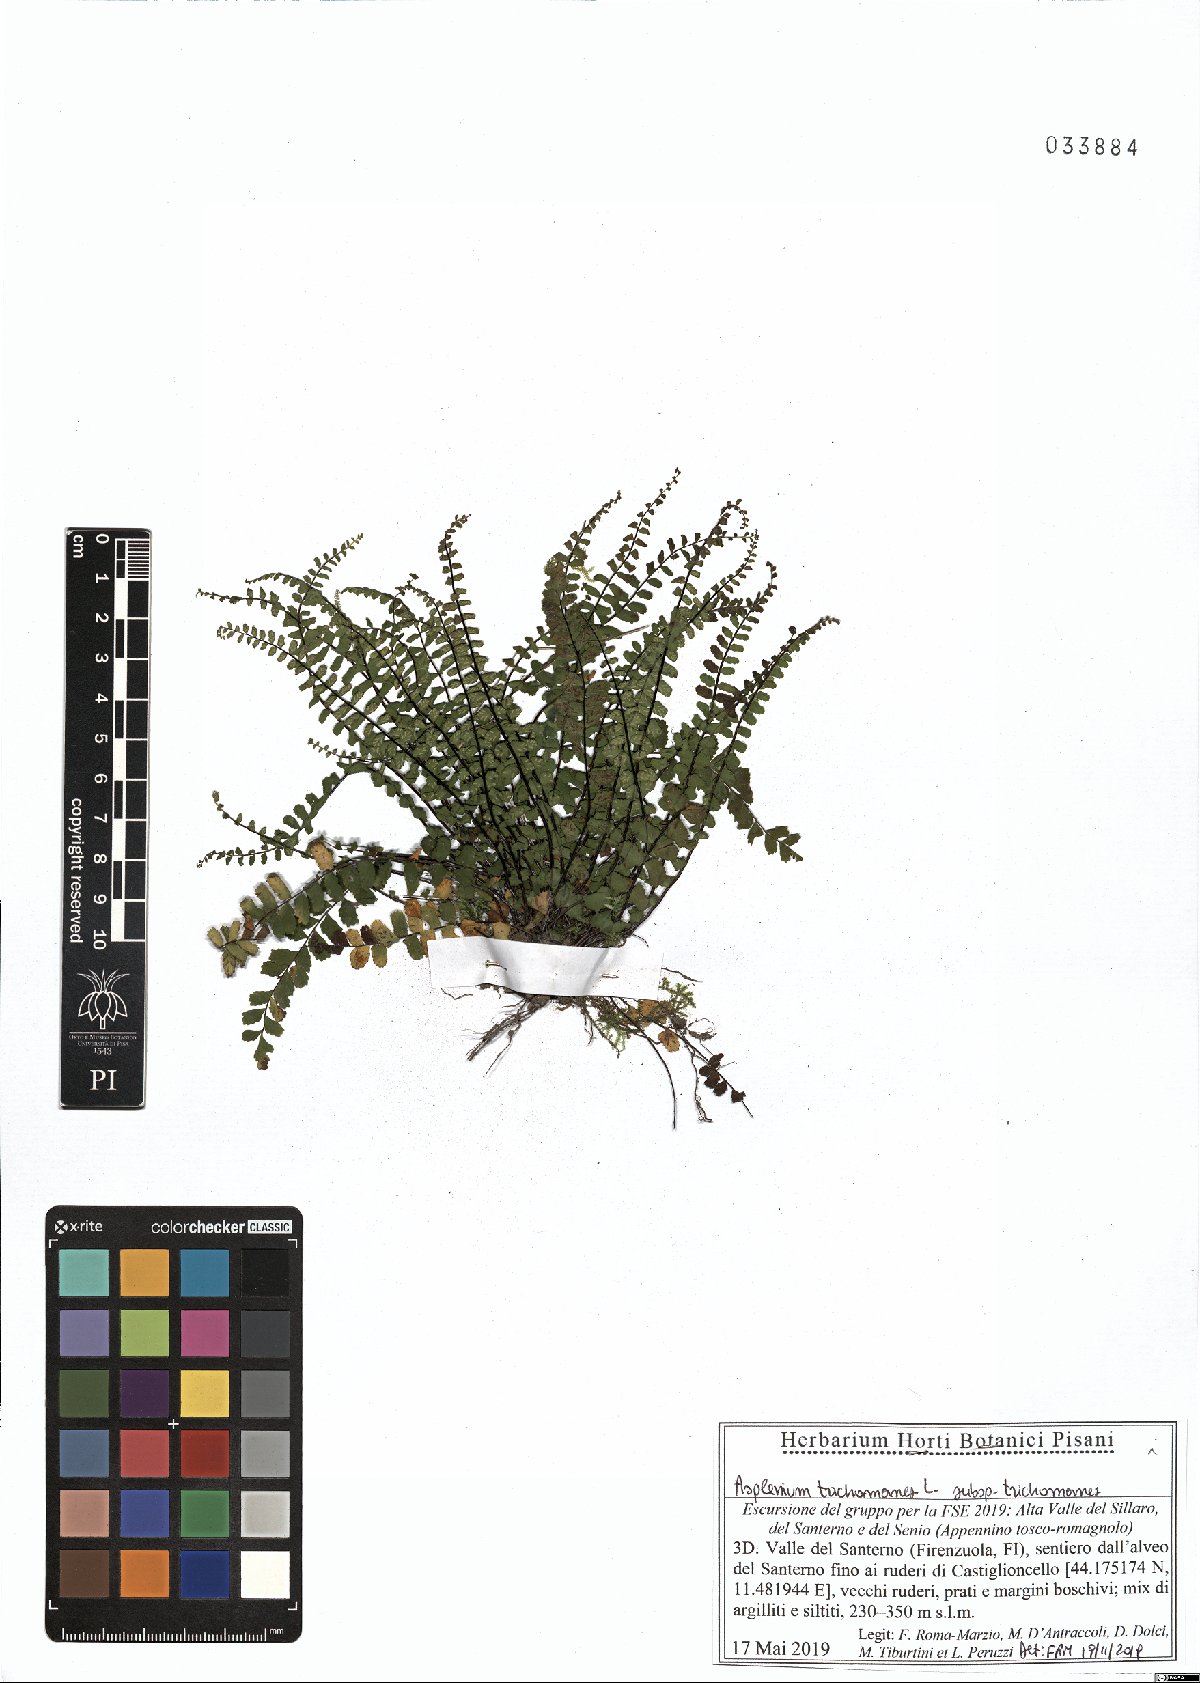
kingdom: Plantae
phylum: Tracheophyta
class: Polypodiopsida
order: Polypodiales
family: Aspleniaceae
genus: Asplenium
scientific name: Asplenium trichomanes
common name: Maidenhair spleenwort
